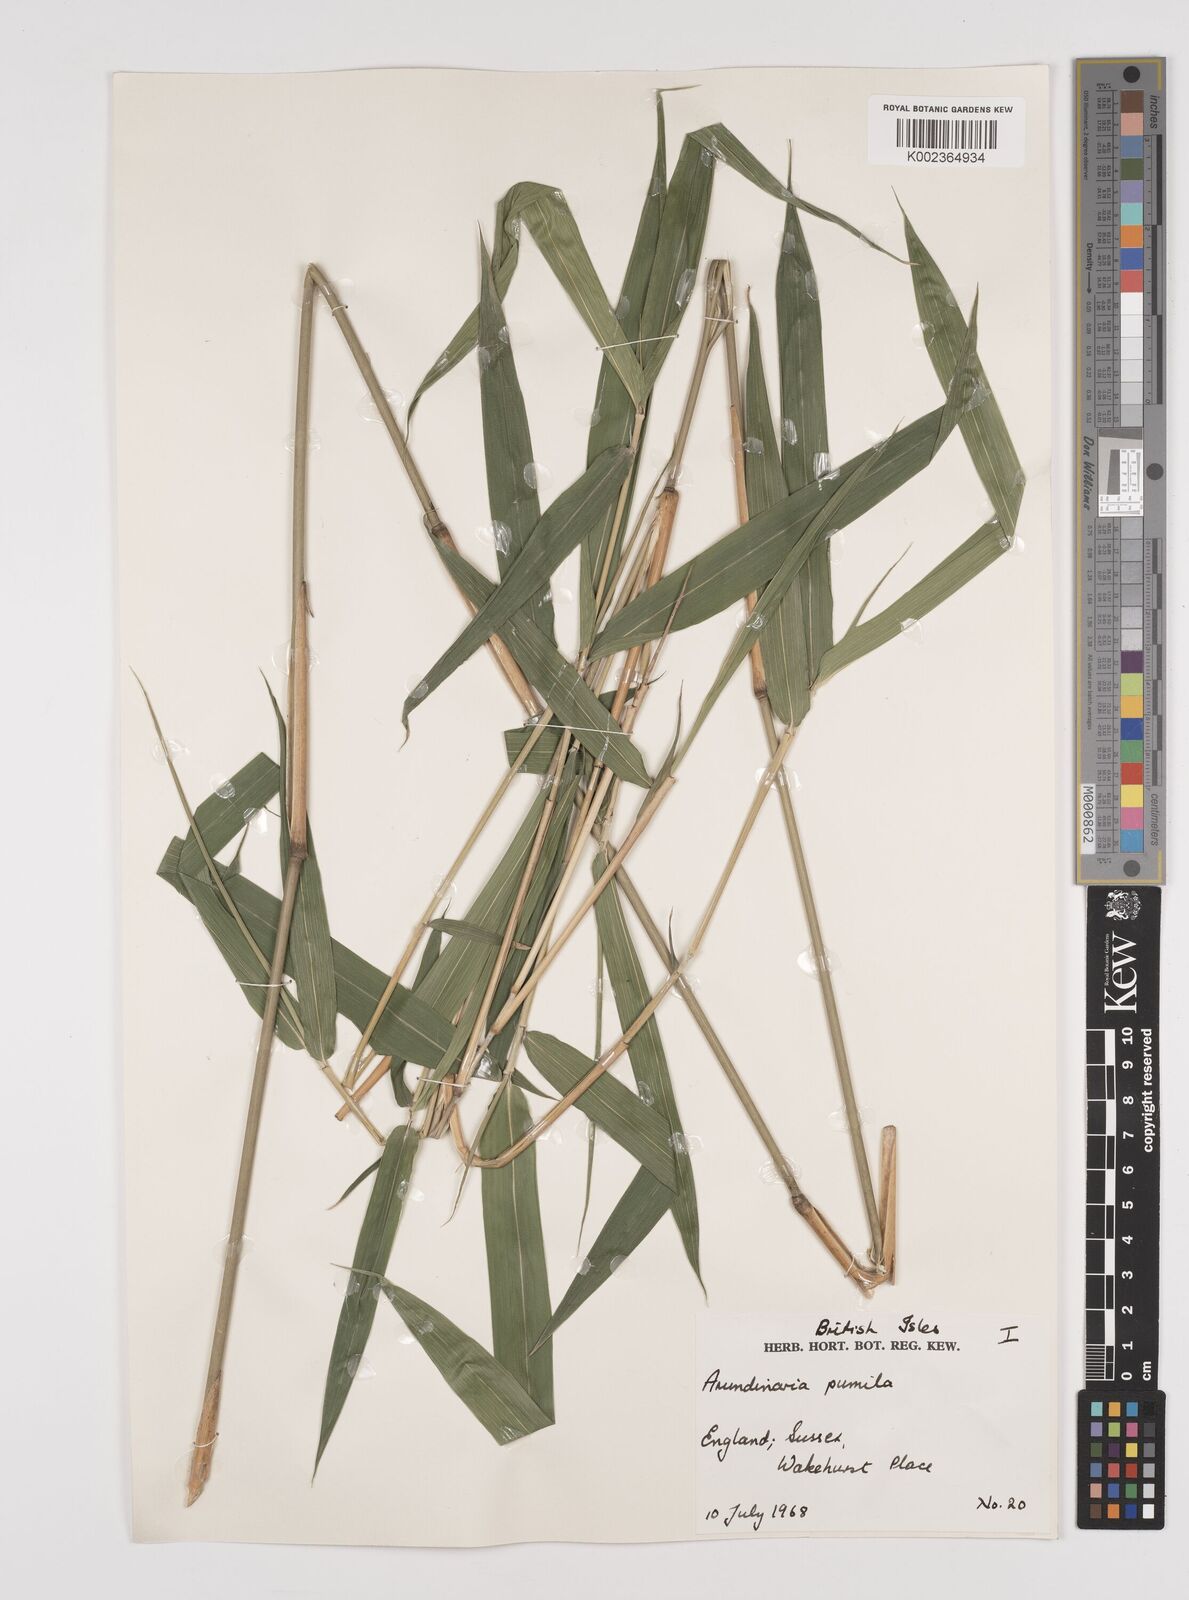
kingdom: Plantae
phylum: Tracheophyta
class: Liliopsida
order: Poales
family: Poaceae
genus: Pleioblastus
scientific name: Pleioblastus argenteostriatus
